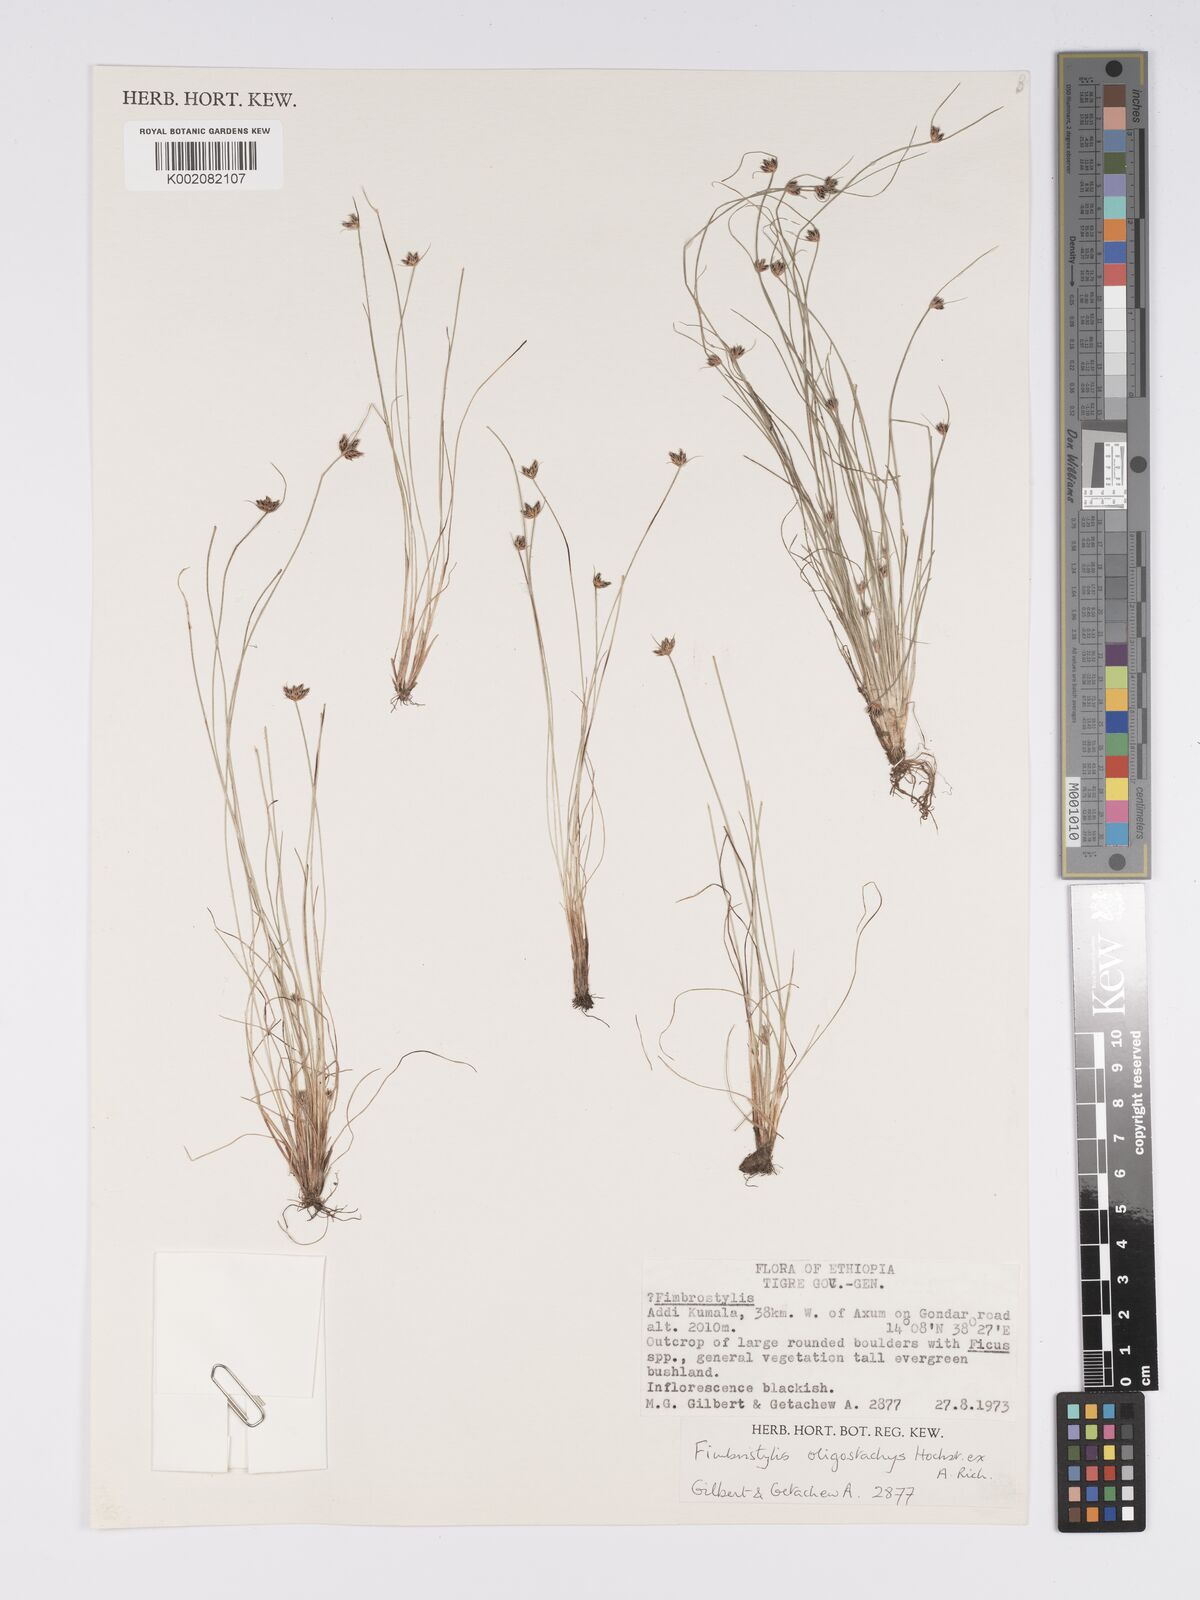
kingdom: Plantae
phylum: Tracheophyta
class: Liliopsida
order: Poales
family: Cyperaceae
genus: Bulbostylis
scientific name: Bulbostylis hispidula
